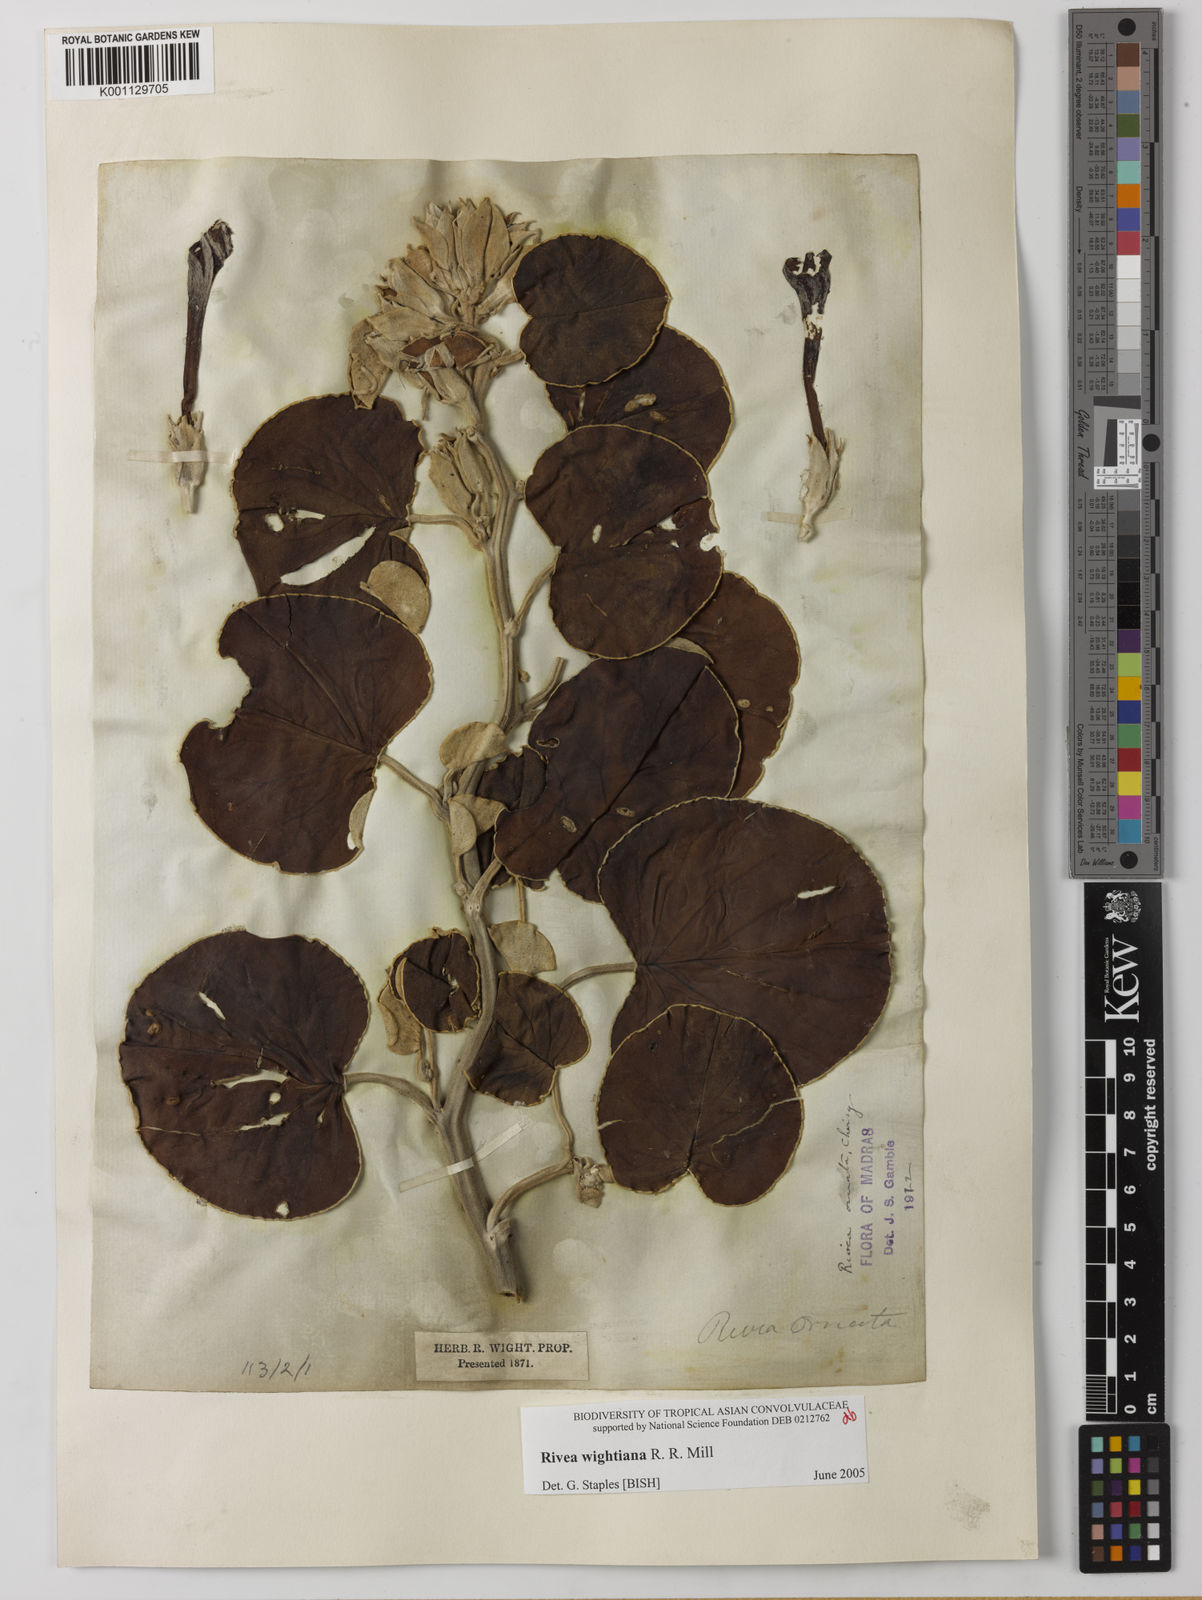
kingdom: Plantae
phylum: Tracheophyta
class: Magnoliopsida
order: Solanales
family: Convolvulaceae
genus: Rivea
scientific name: Rivea wightiana
